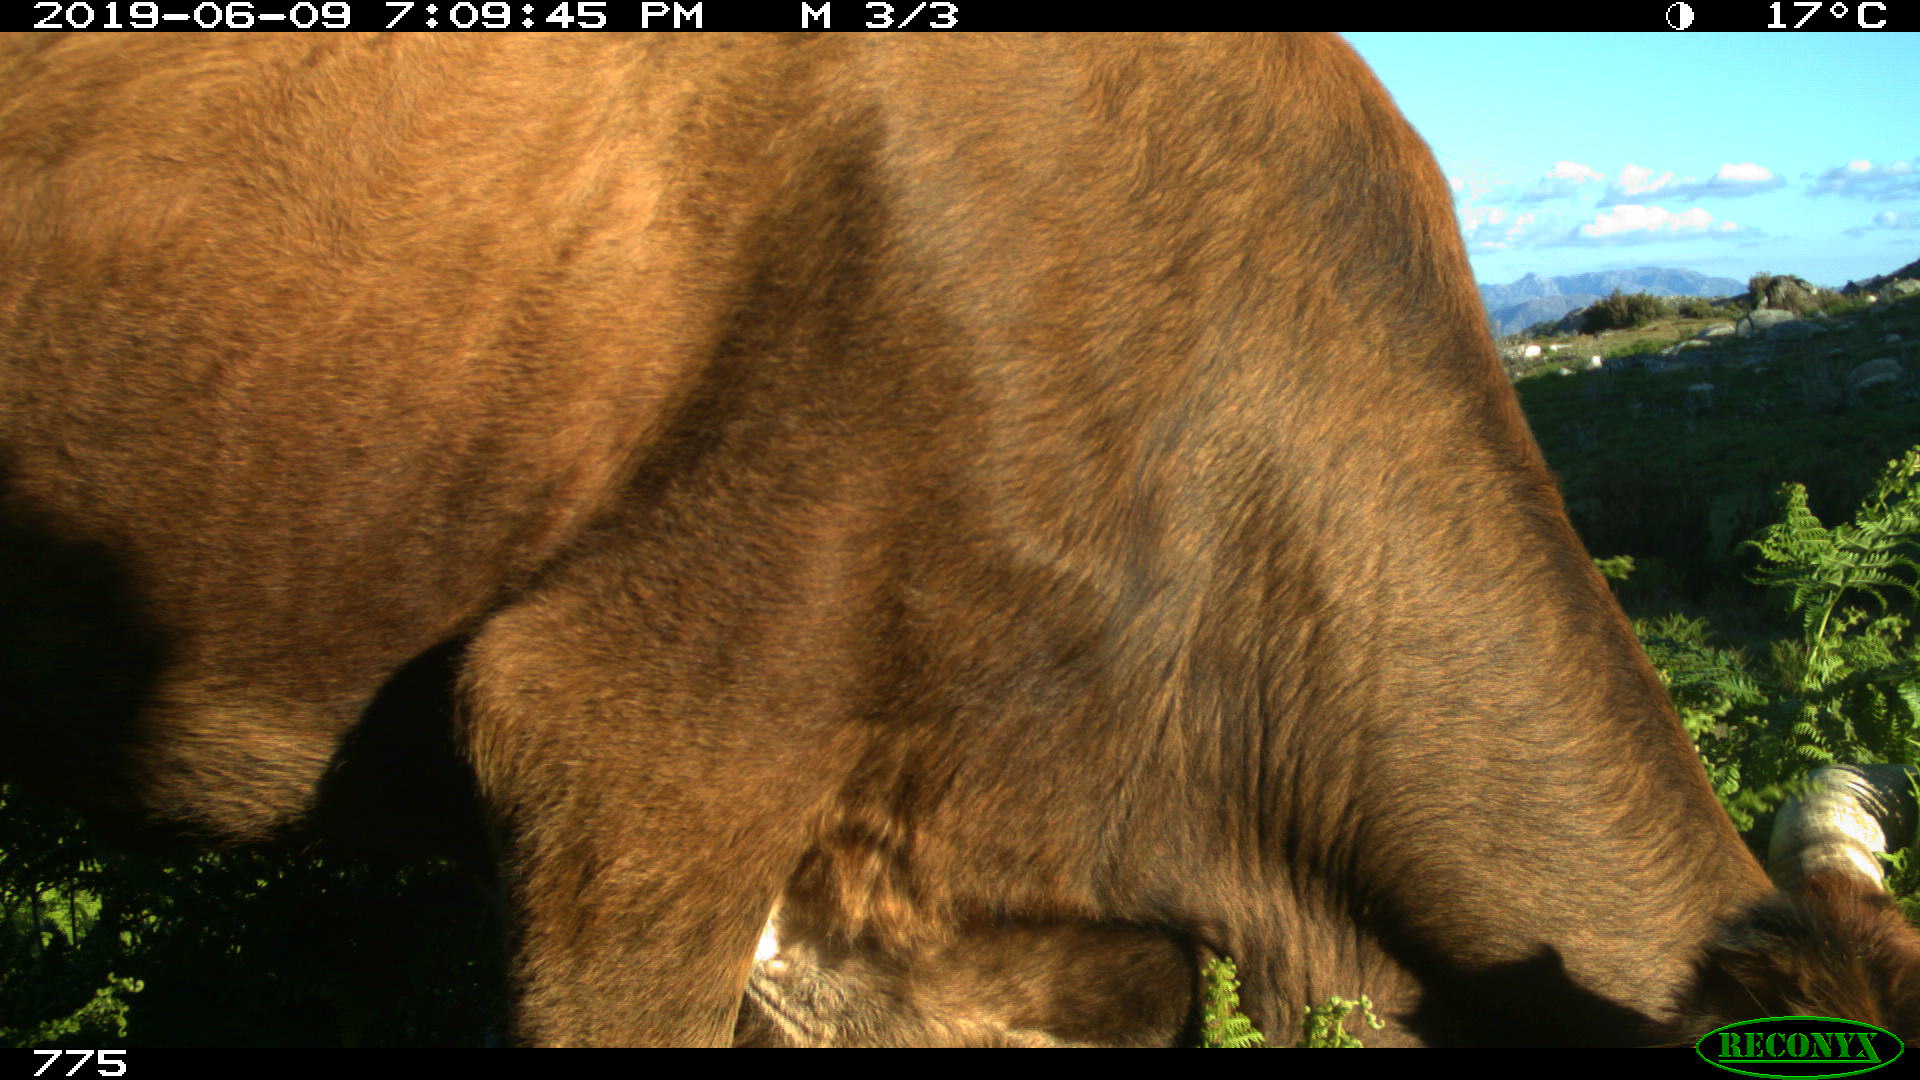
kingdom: Animalia
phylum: Chordata
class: Mammalia
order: Artiodactyla
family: Bovidae
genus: Bos
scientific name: Bos taurus
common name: Domesticated cattle
